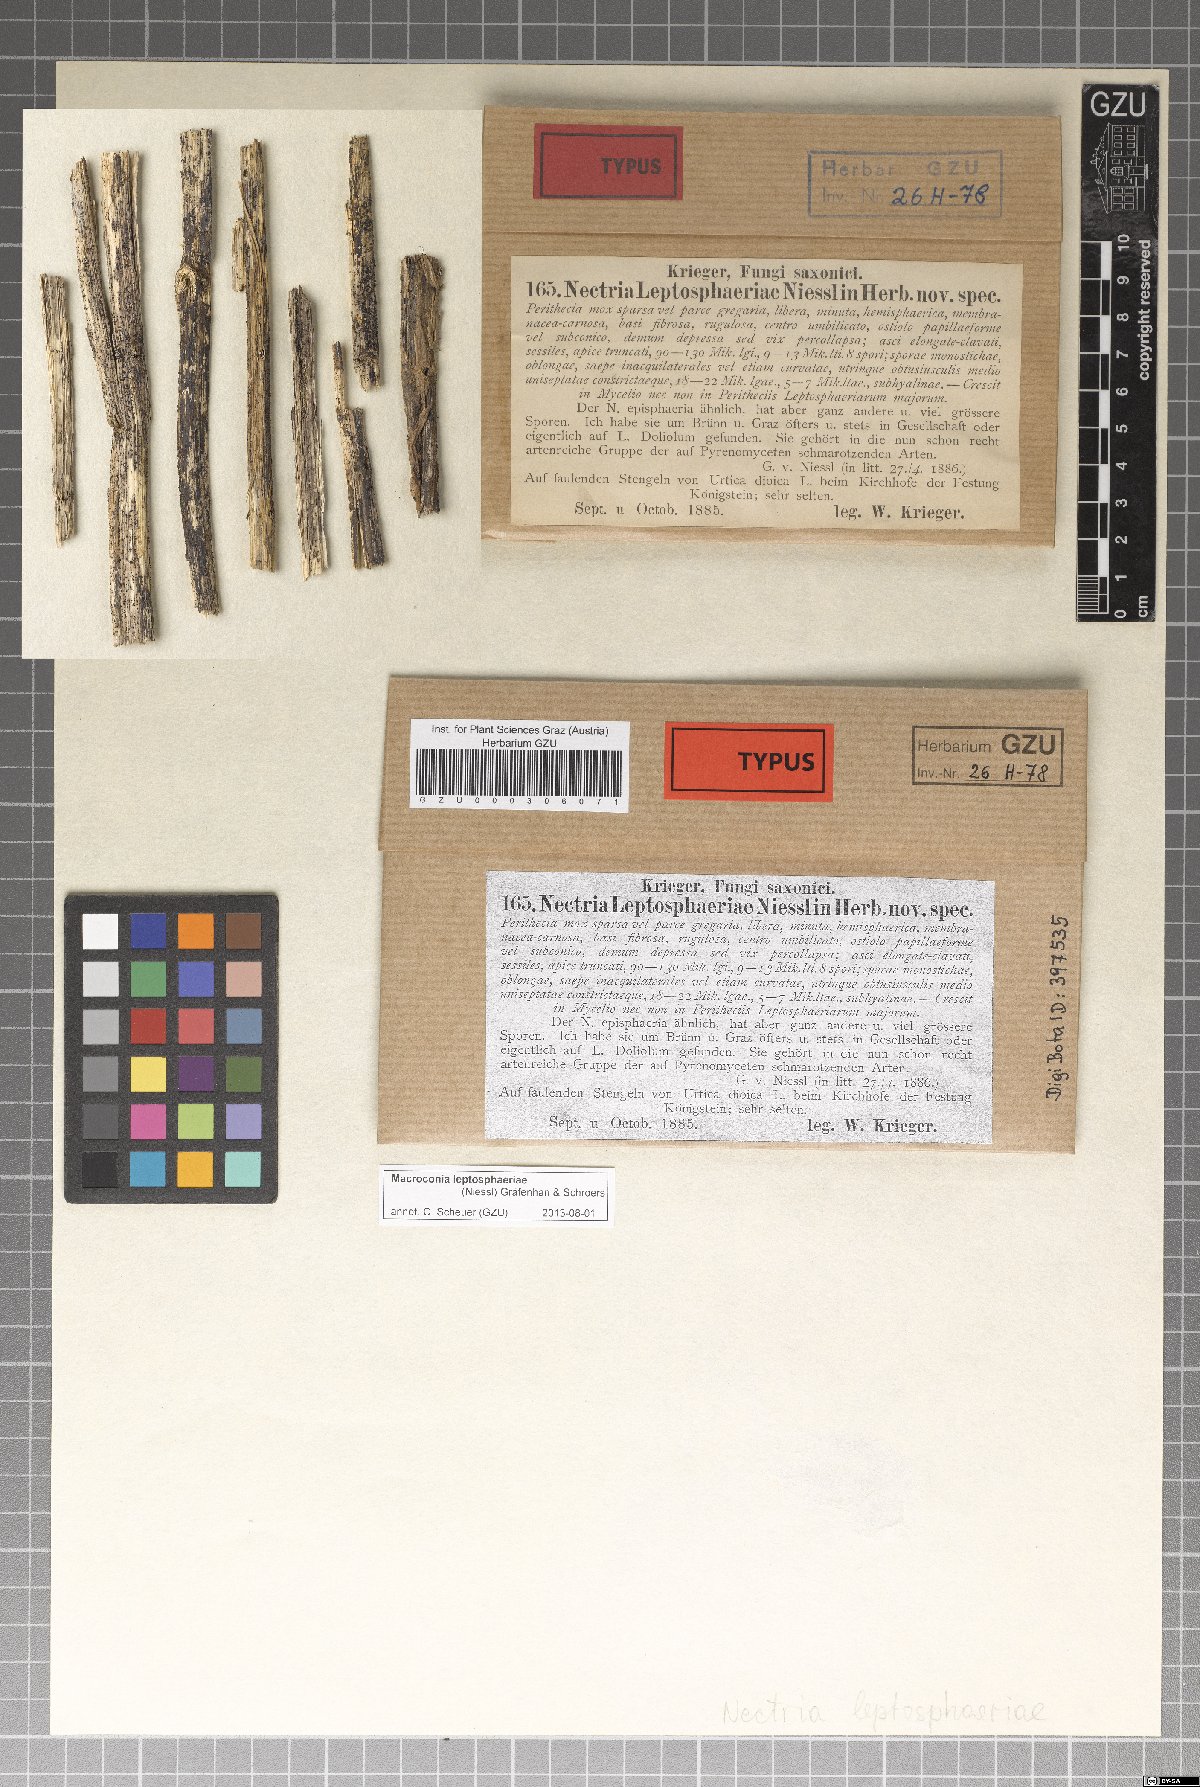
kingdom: Fungi
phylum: Ascomycota
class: Sordariomycetes
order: Hypocreales
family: Nectriaceae
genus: Macroconia
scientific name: Macroconia sphaeriae
